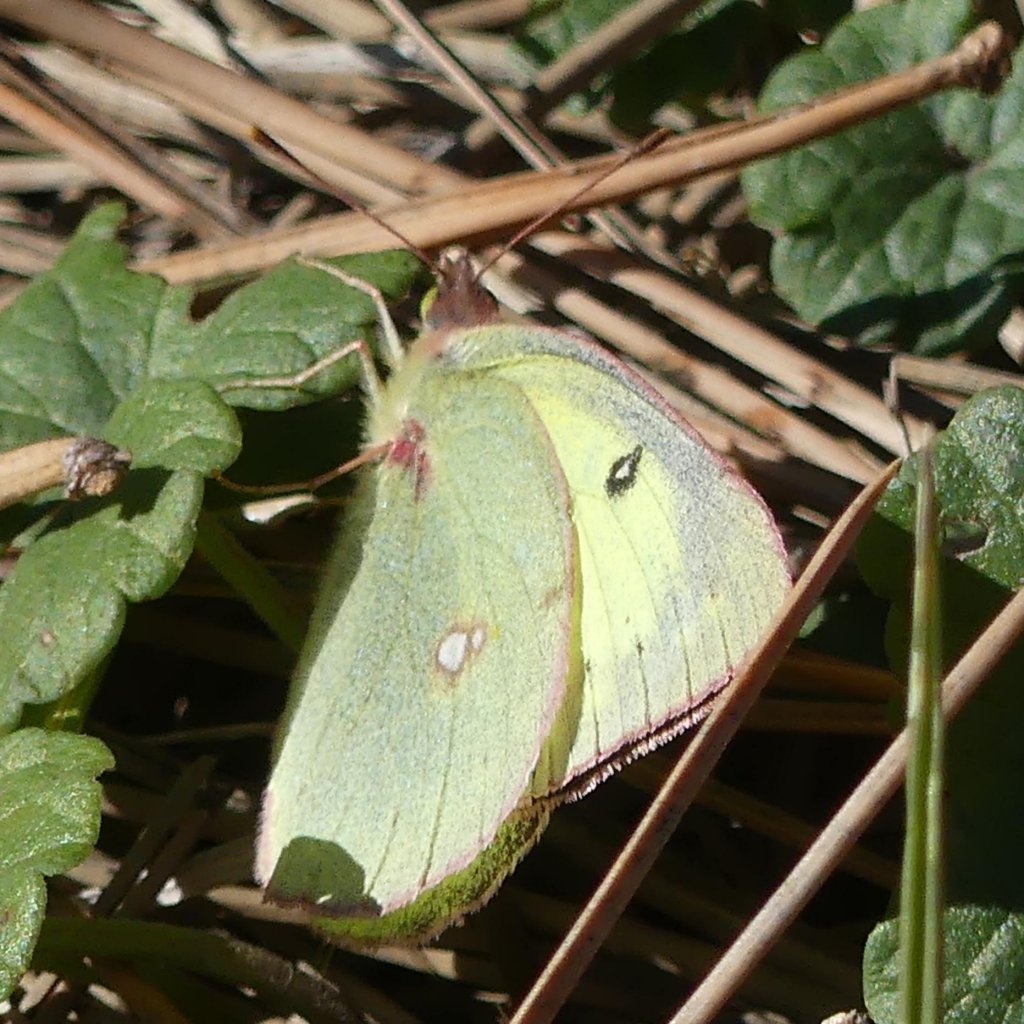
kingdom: Animalia
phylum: Arthropoda
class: Insecta
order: Lepidoptera
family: Pieridae
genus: Colias
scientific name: Colias philodice
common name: Clouded Sulphur
